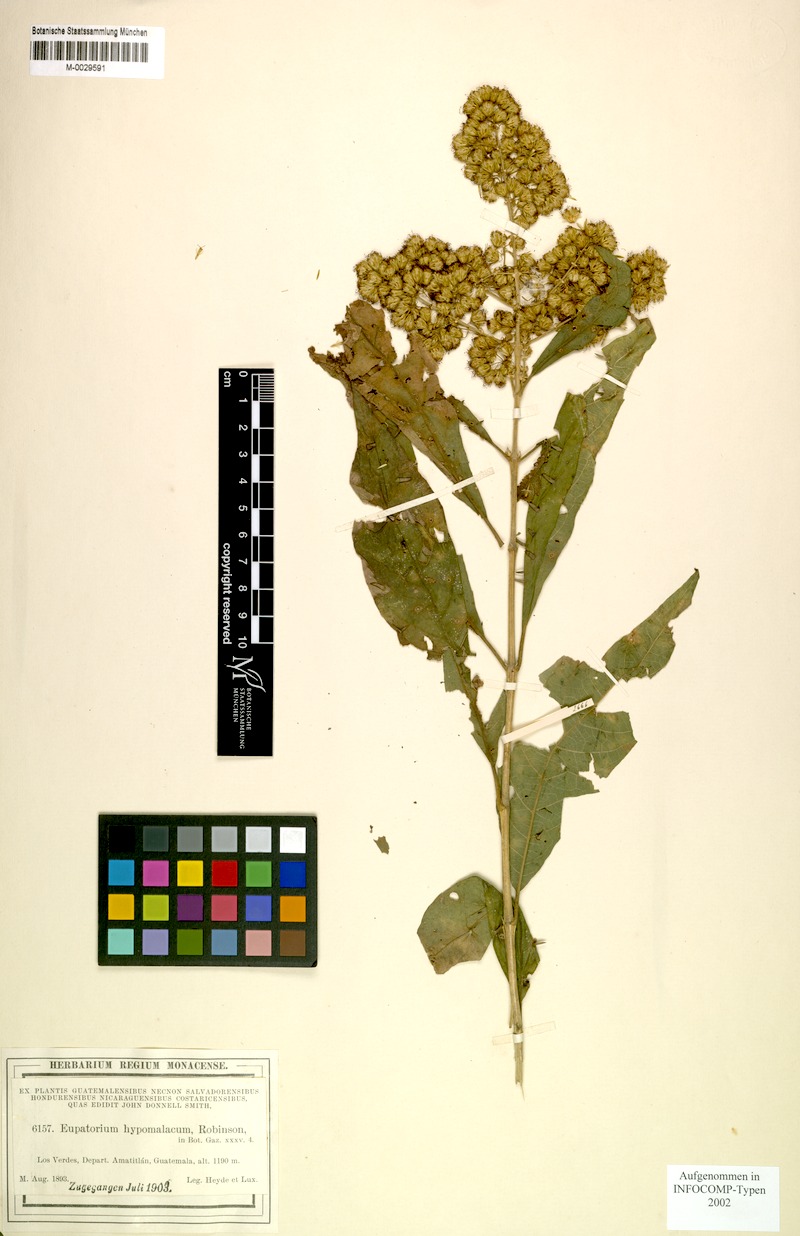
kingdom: Plantae
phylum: Tracheophyta
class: Magnoliopsida
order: Asterales
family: Asteraceae
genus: Koanophyllon
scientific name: Koanophyllon hypomalaca
